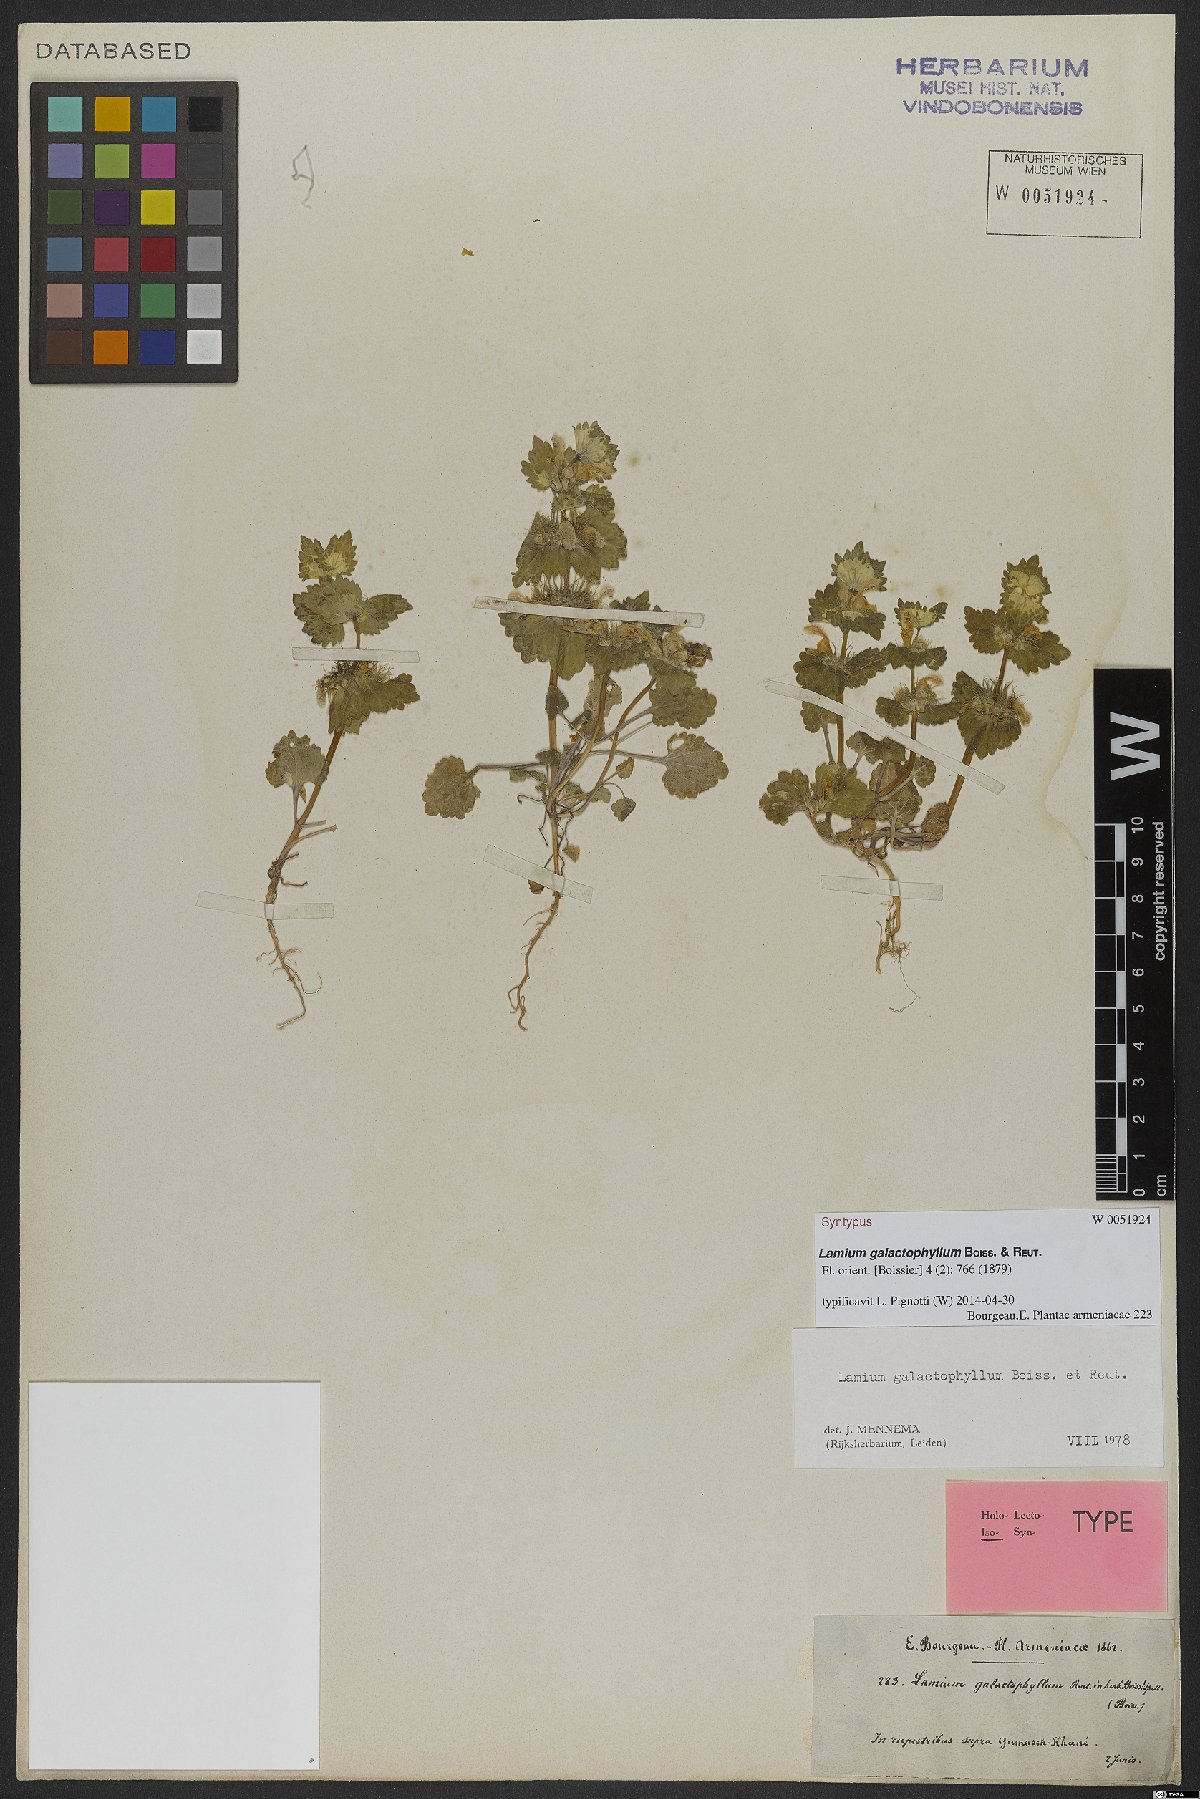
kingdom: Plantae
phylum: Tracheophyta
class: Magnoliopsida
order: Lamiales
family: Lamiaceae
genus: Lamium
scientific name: Lamium galactophyllum
